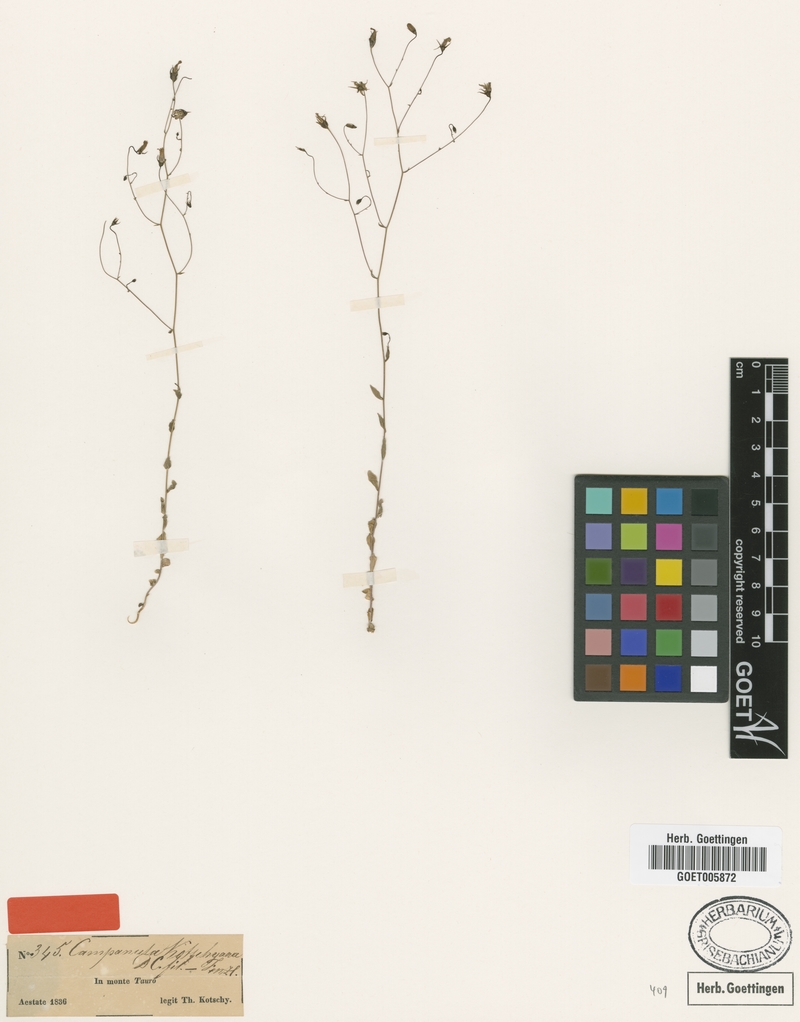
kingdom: Plantae
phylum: Tracheophyta
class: Magnoliopsida
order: Asterales
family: Campanulaceae
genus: Campanula
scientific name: Campanula kotschyana
